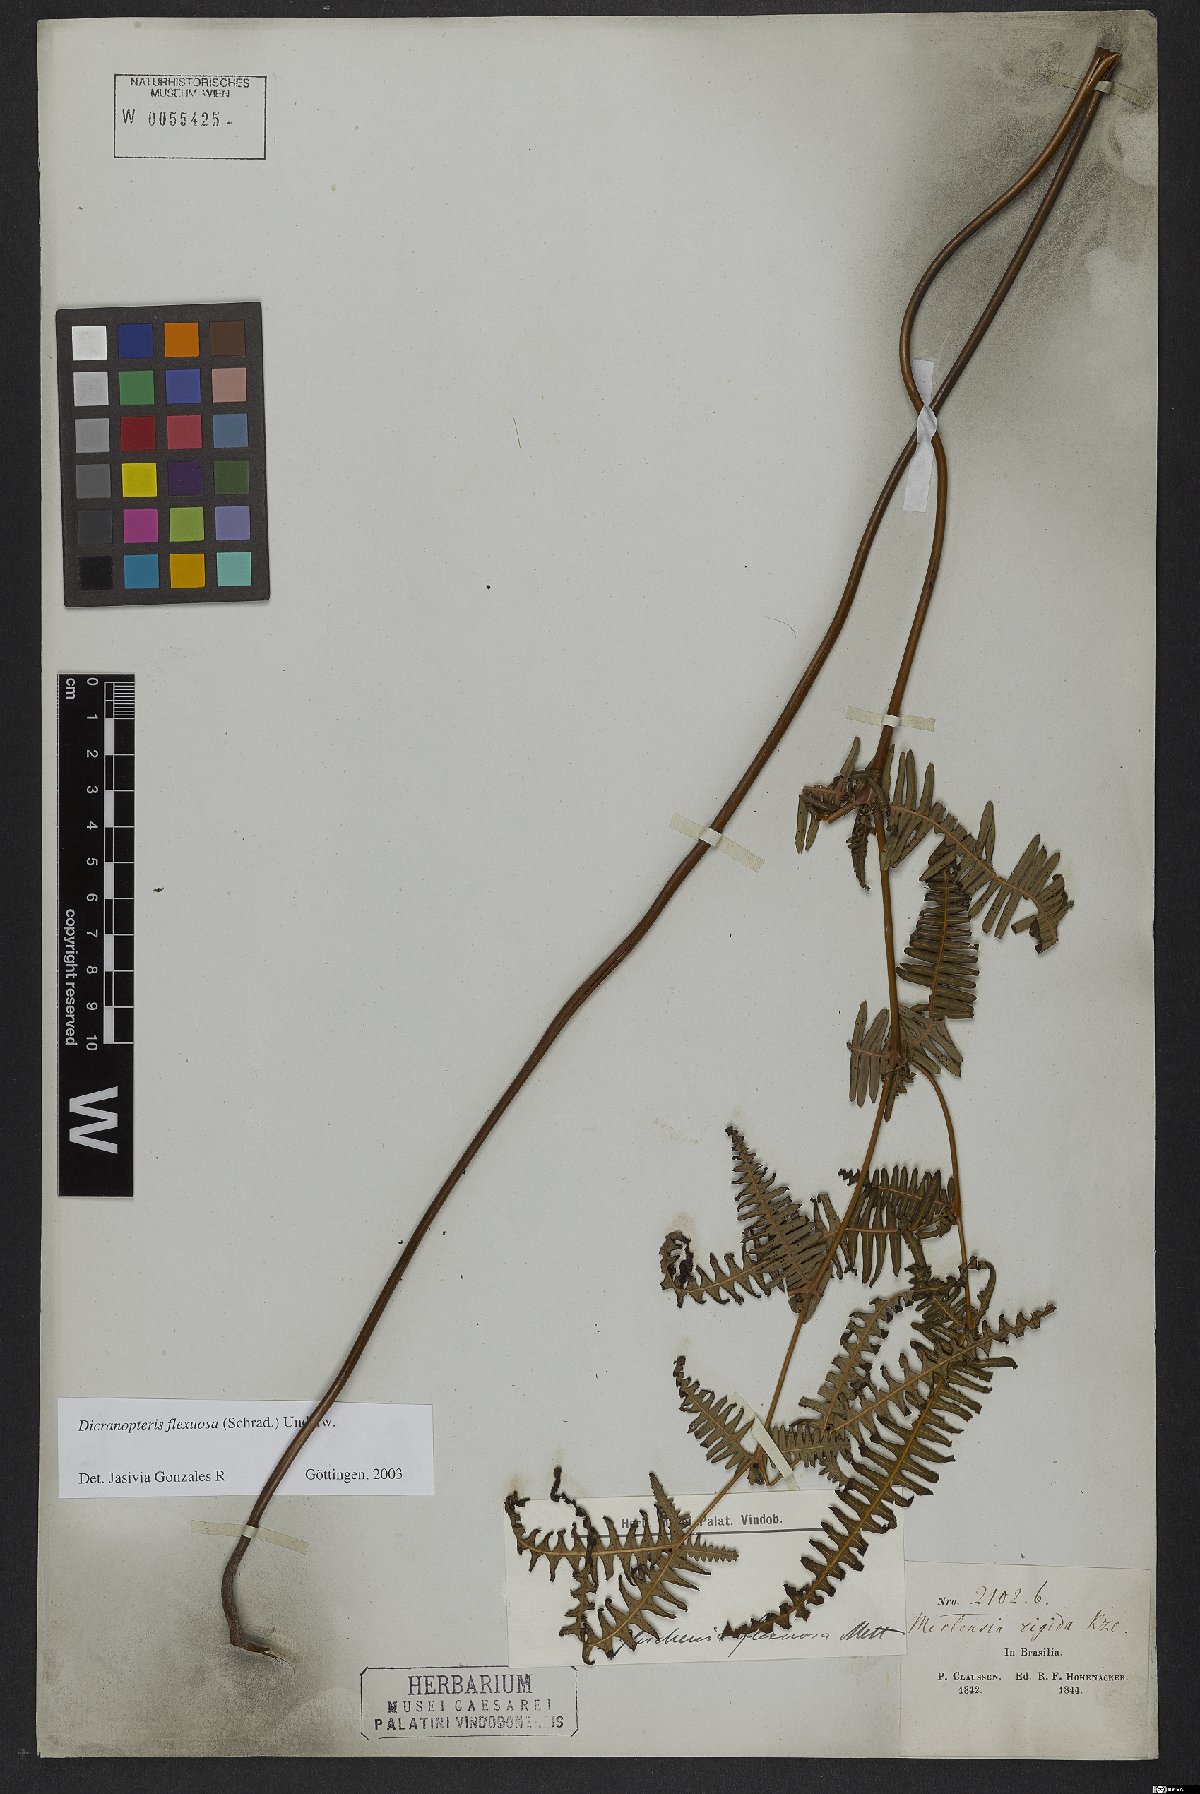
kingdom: Plantae
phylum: Tracheophyta
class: Polypodiopsida
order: Gleicheniales
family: Gleicheniaceae
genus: Dicranopteris
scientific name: Dicranopteris flexuosa
